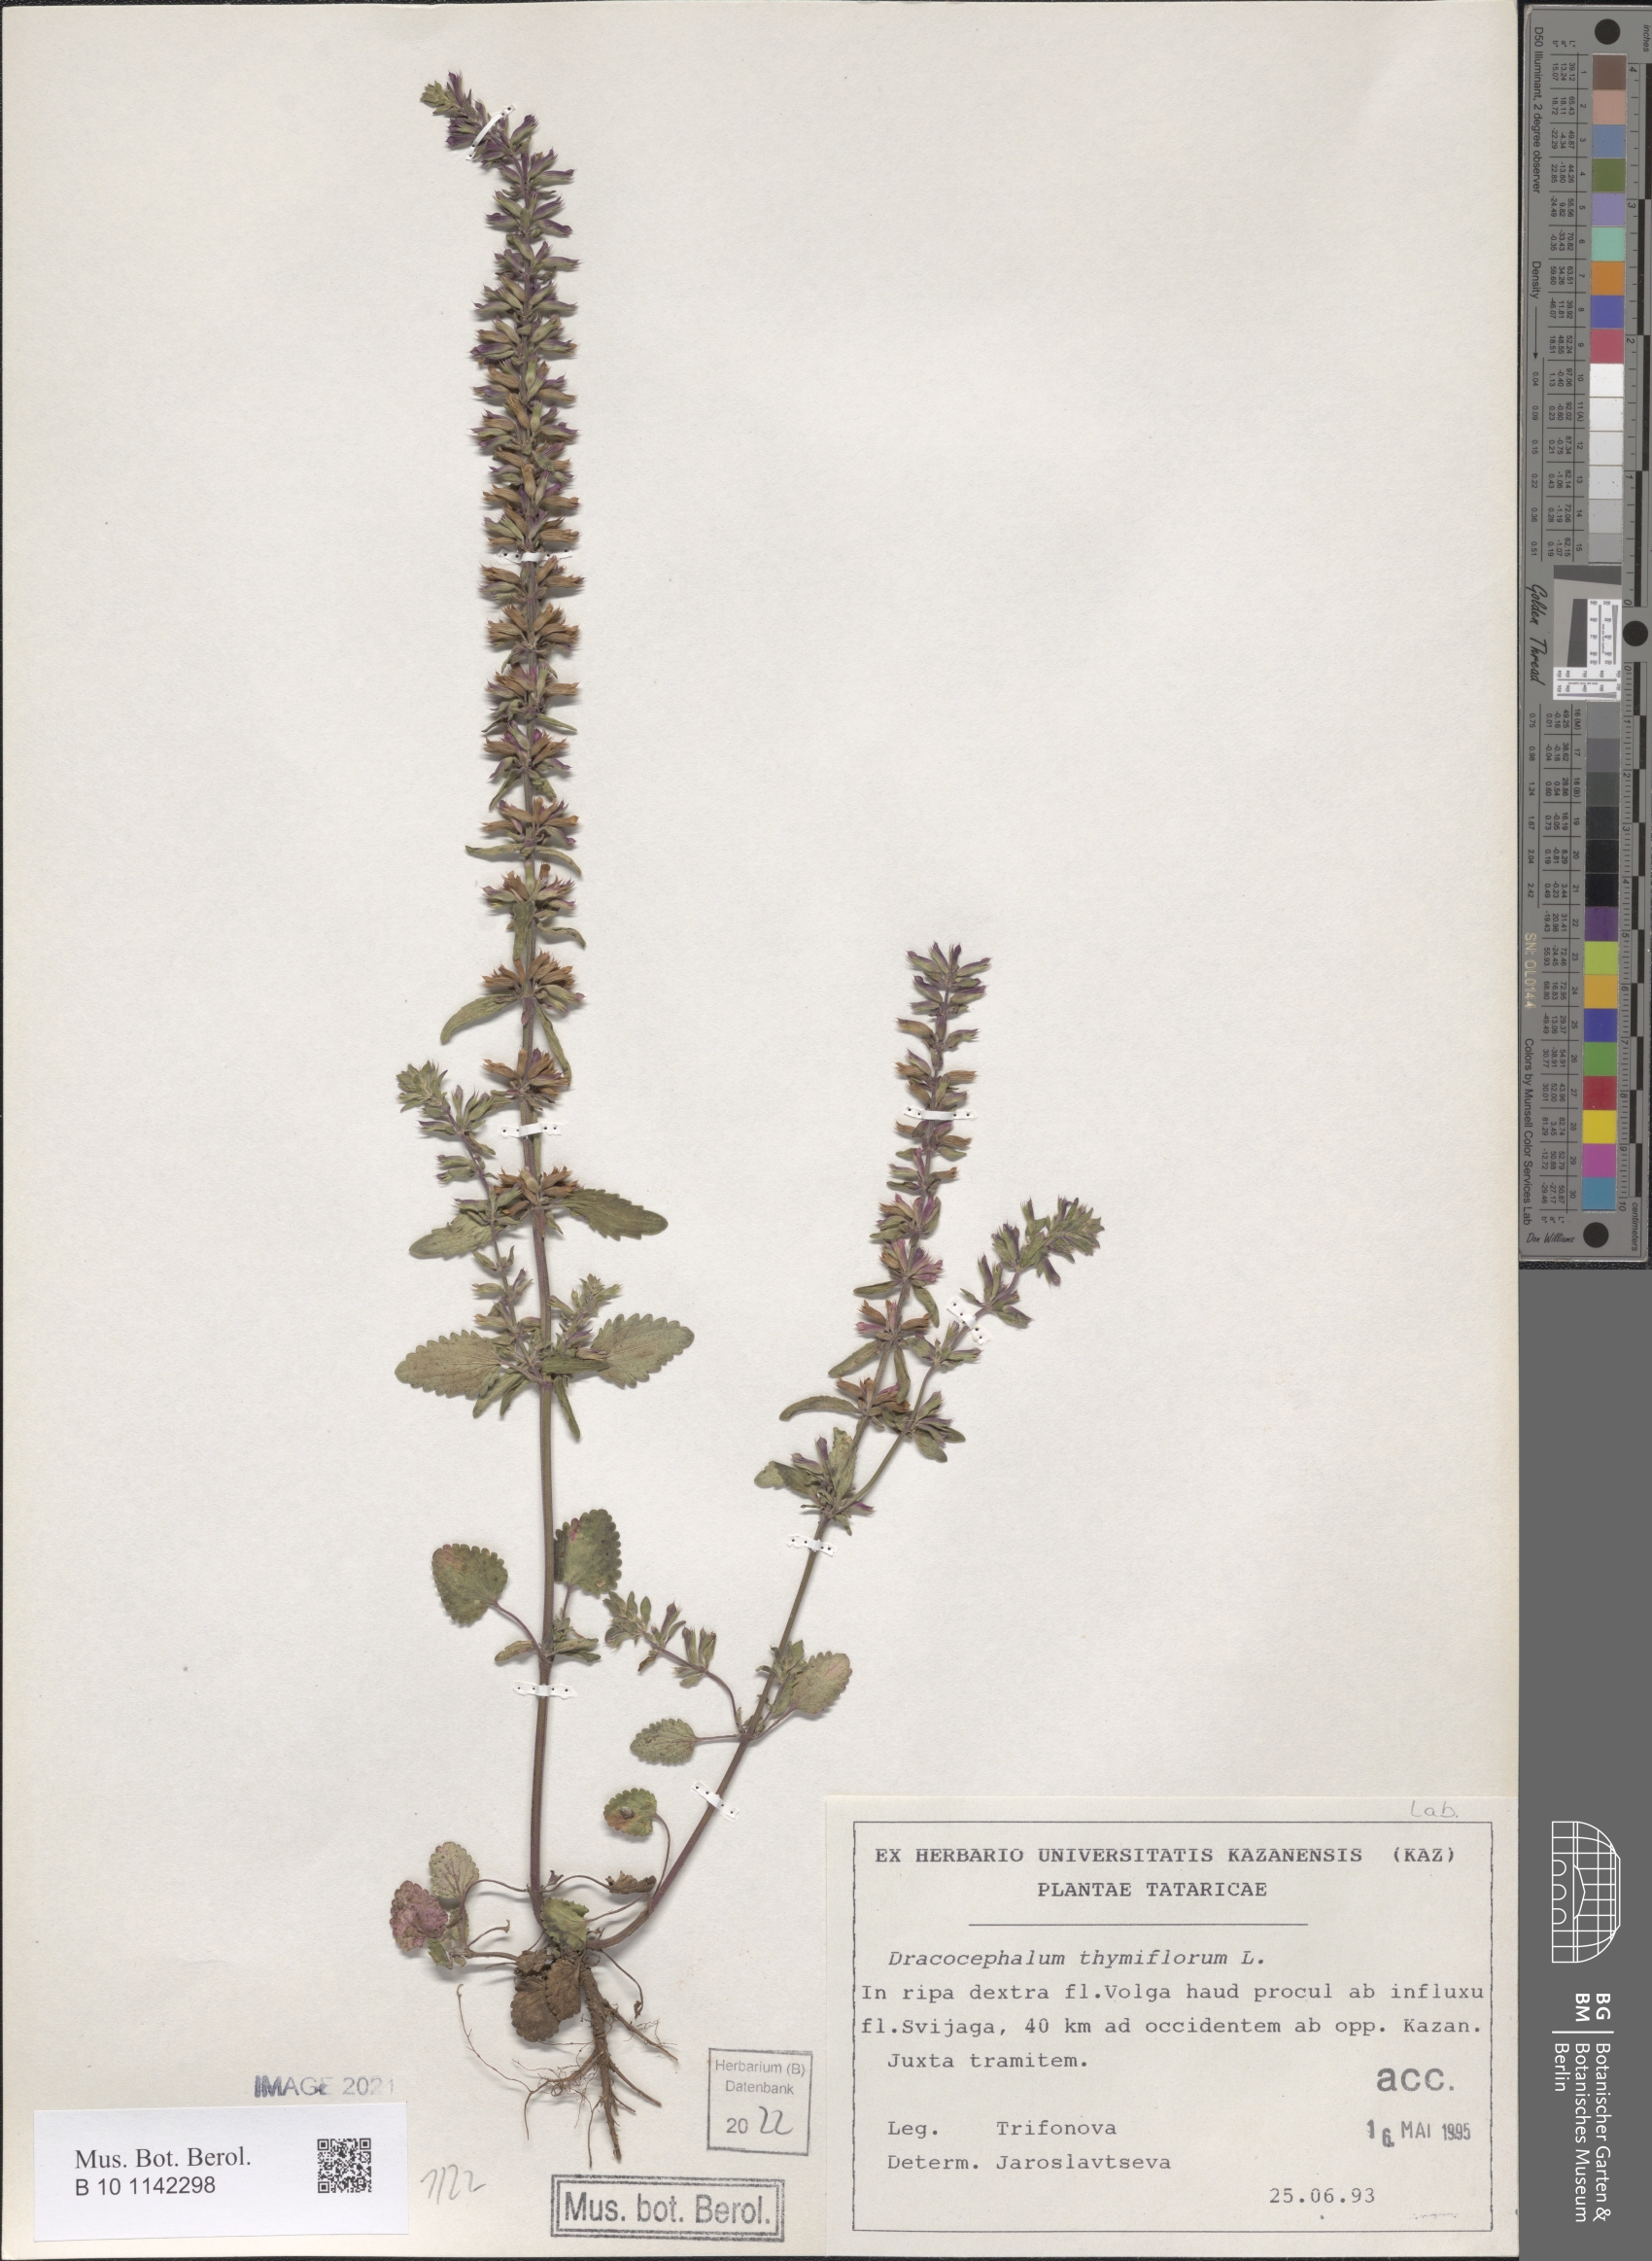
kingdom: Plantae
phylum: Tracheophyta
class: Magnoliopsida
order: Lamiales
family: Lamiaceae
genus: Dracocephalum
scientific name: Dracocephalum thymiflorum
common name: Thymeleaf dragonhead
